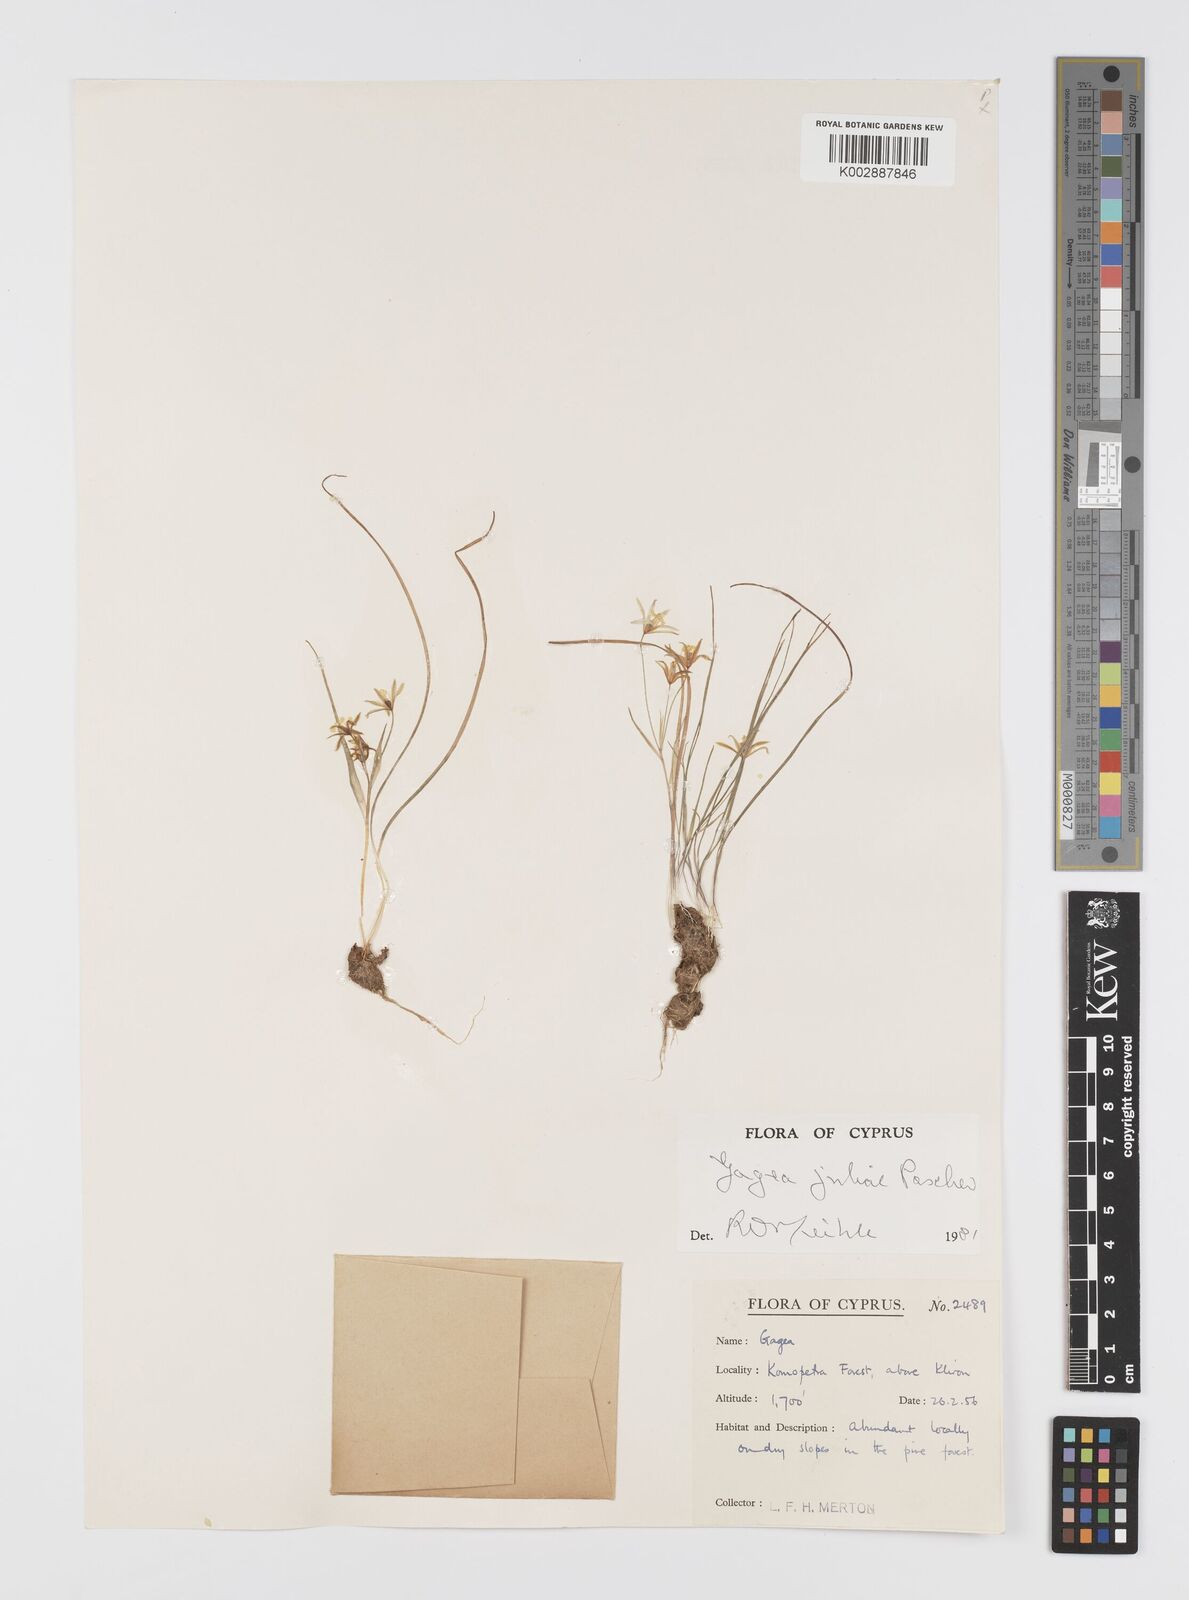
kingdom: Plantae
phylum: Tracheophyta
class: Liliopsida
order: Liliales
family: Liliaceae
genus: Gagea
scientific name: Gagea juliae
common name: Julia’s gagea
